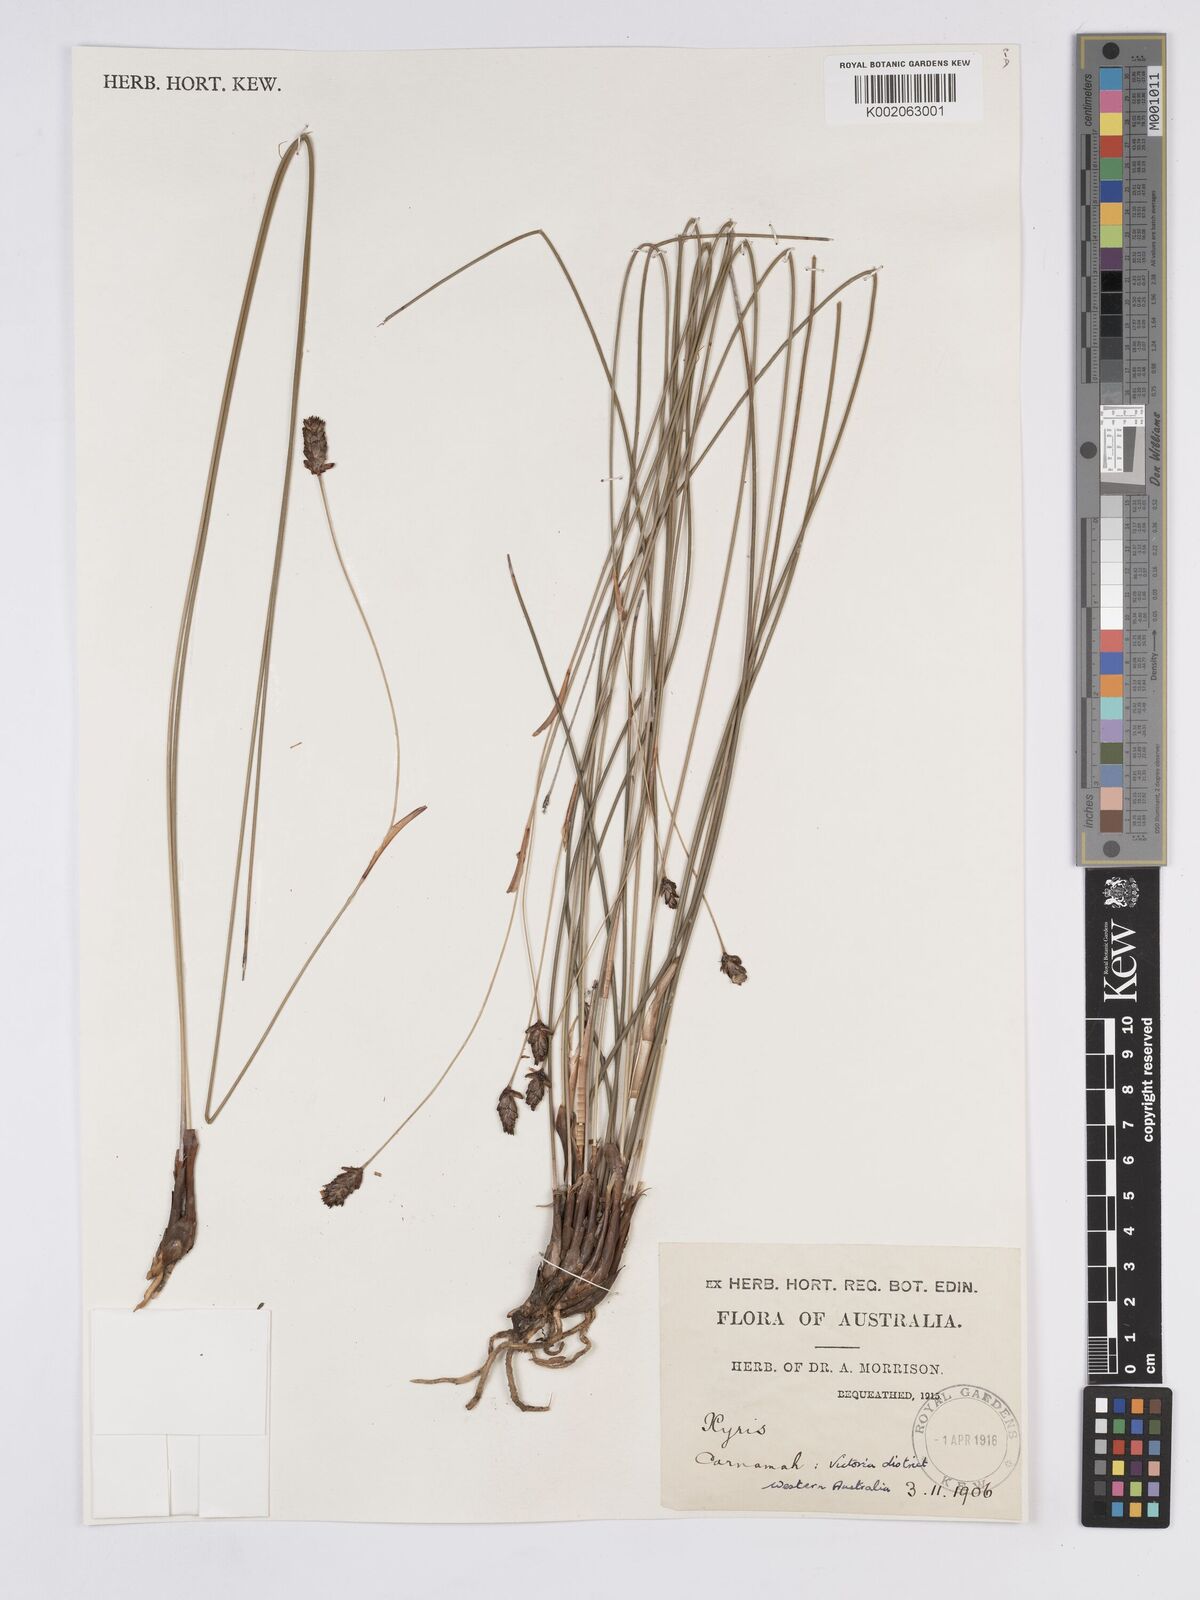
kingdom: Plantae
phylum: Tracheophyta
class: Liliopsida
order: Poales
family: Xyridaceae
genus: Xyris
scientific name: Xyris
